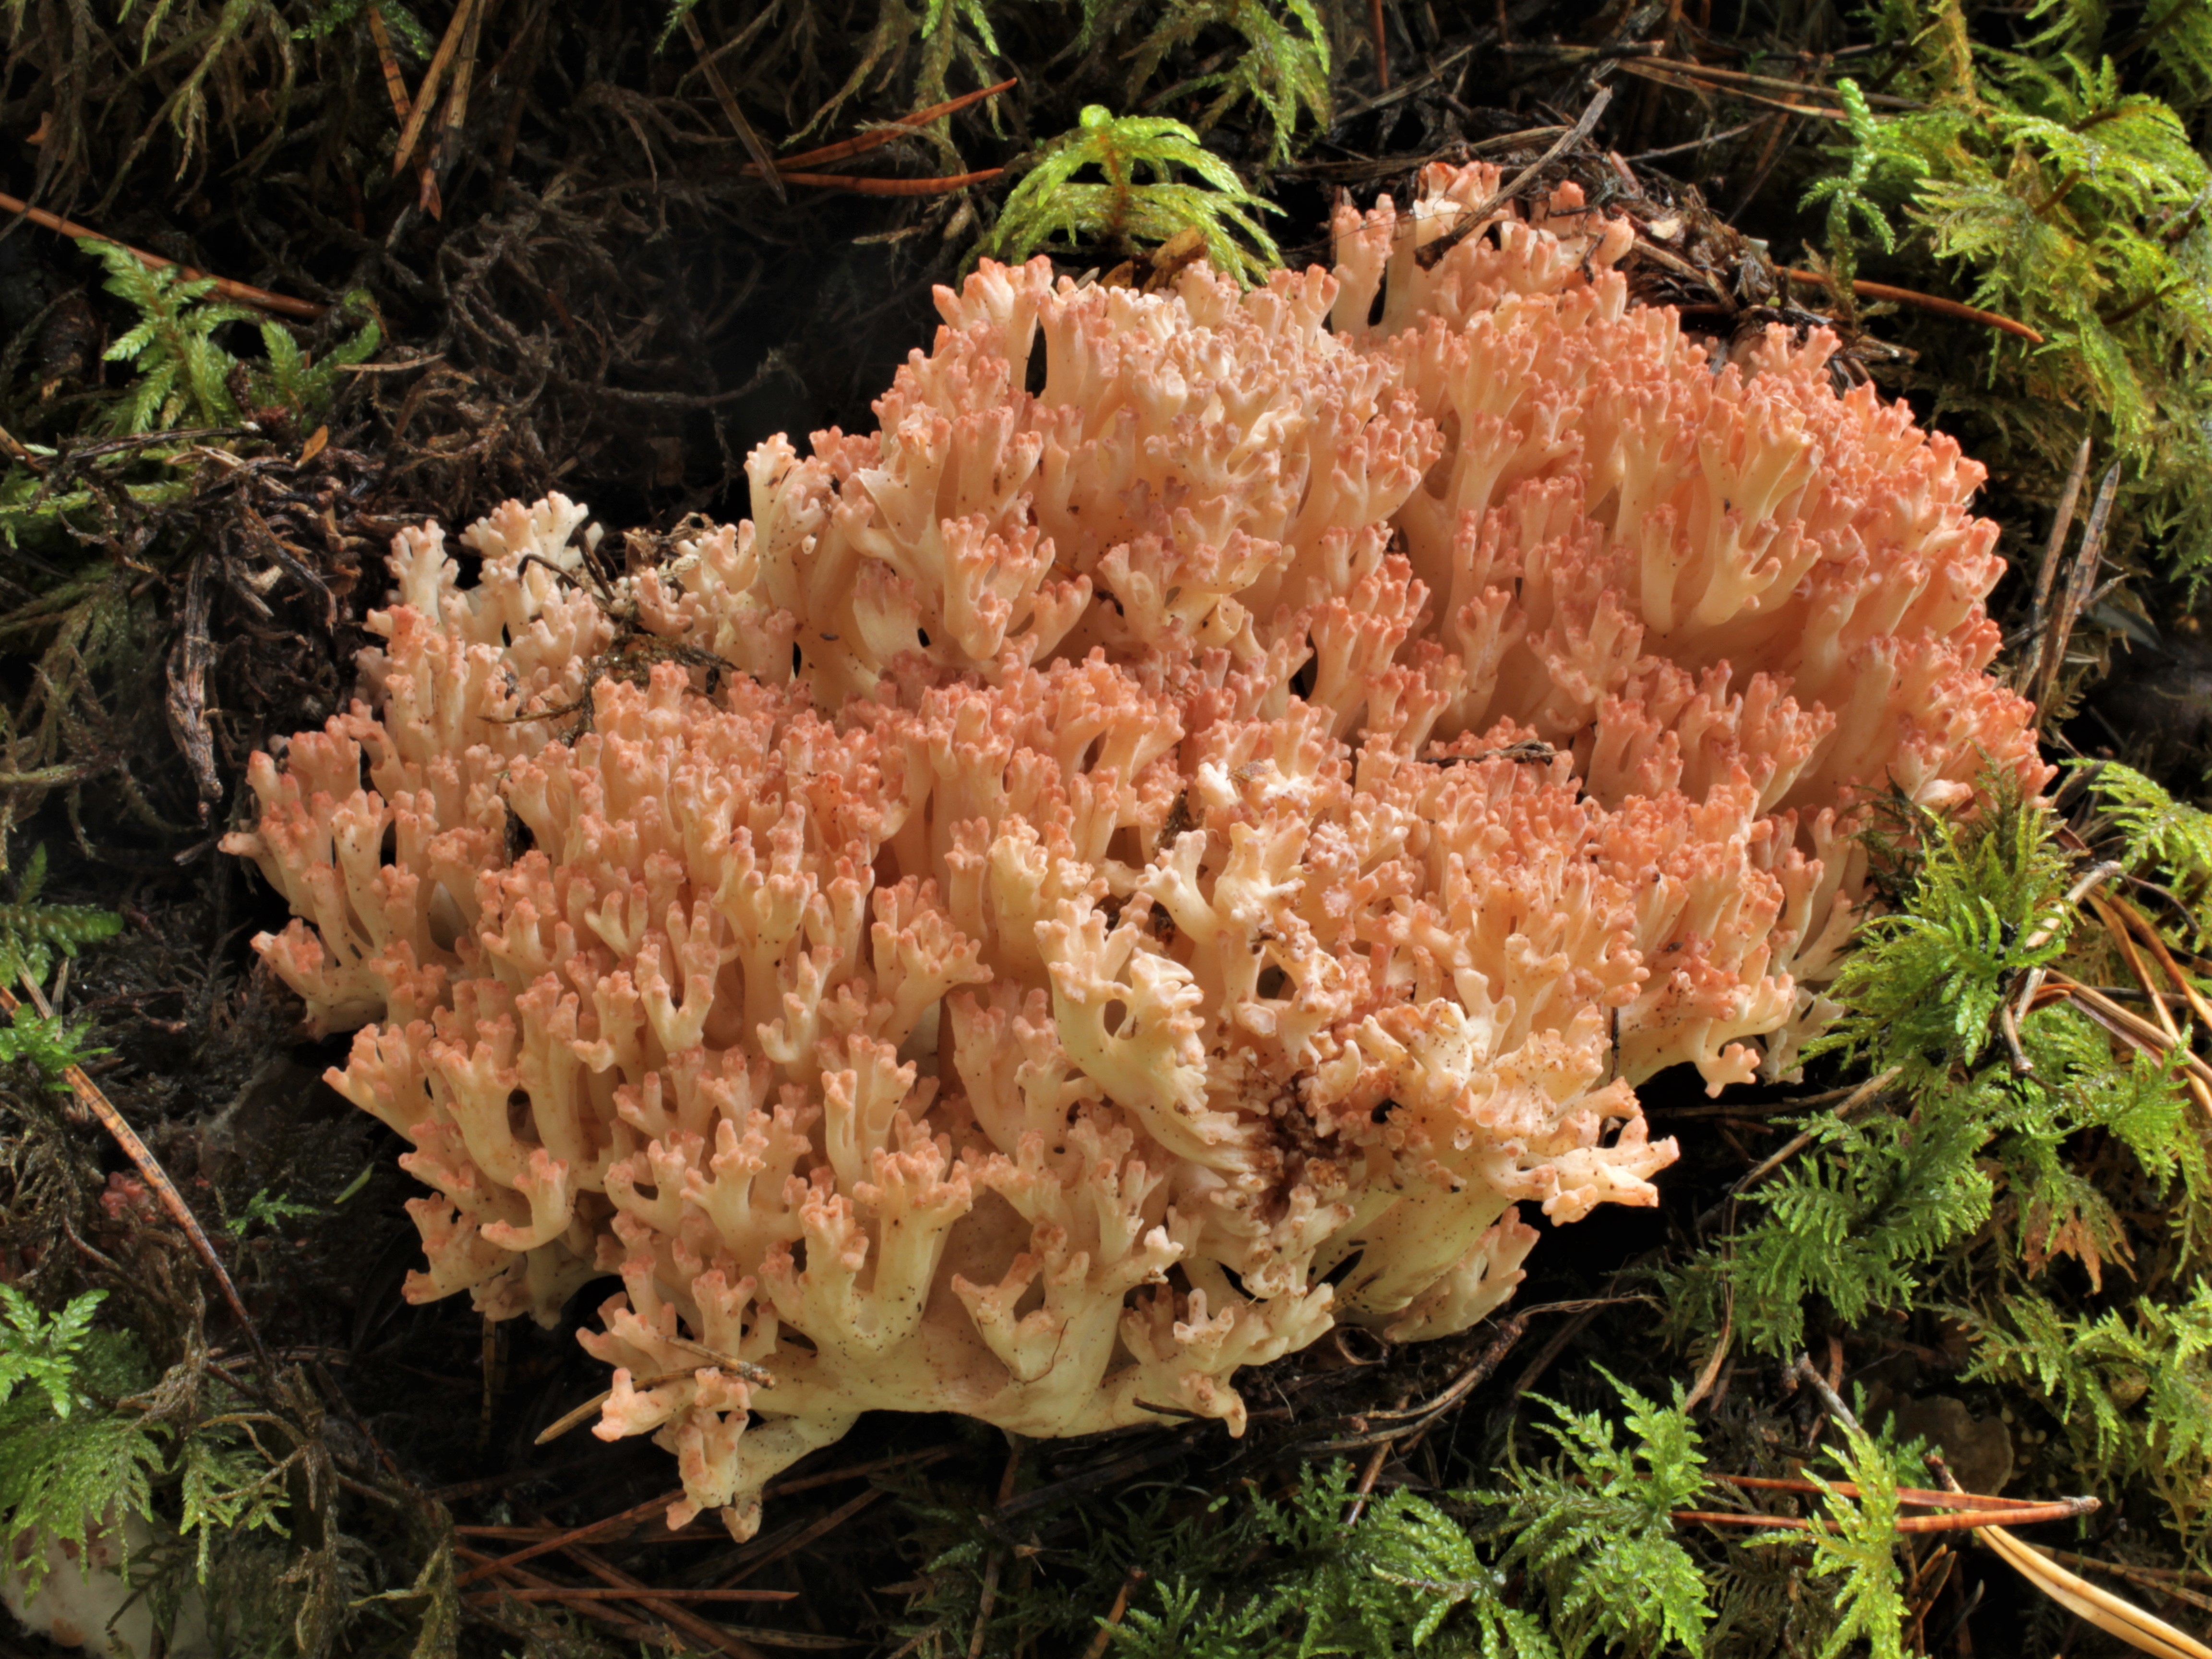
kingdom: Fungi
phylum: Basidiomycota
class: Agaricomycetes
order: Gomphales
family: Gomphaceae
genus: Ramaria
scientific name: Ramaria botrytis
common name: Rosso coral
